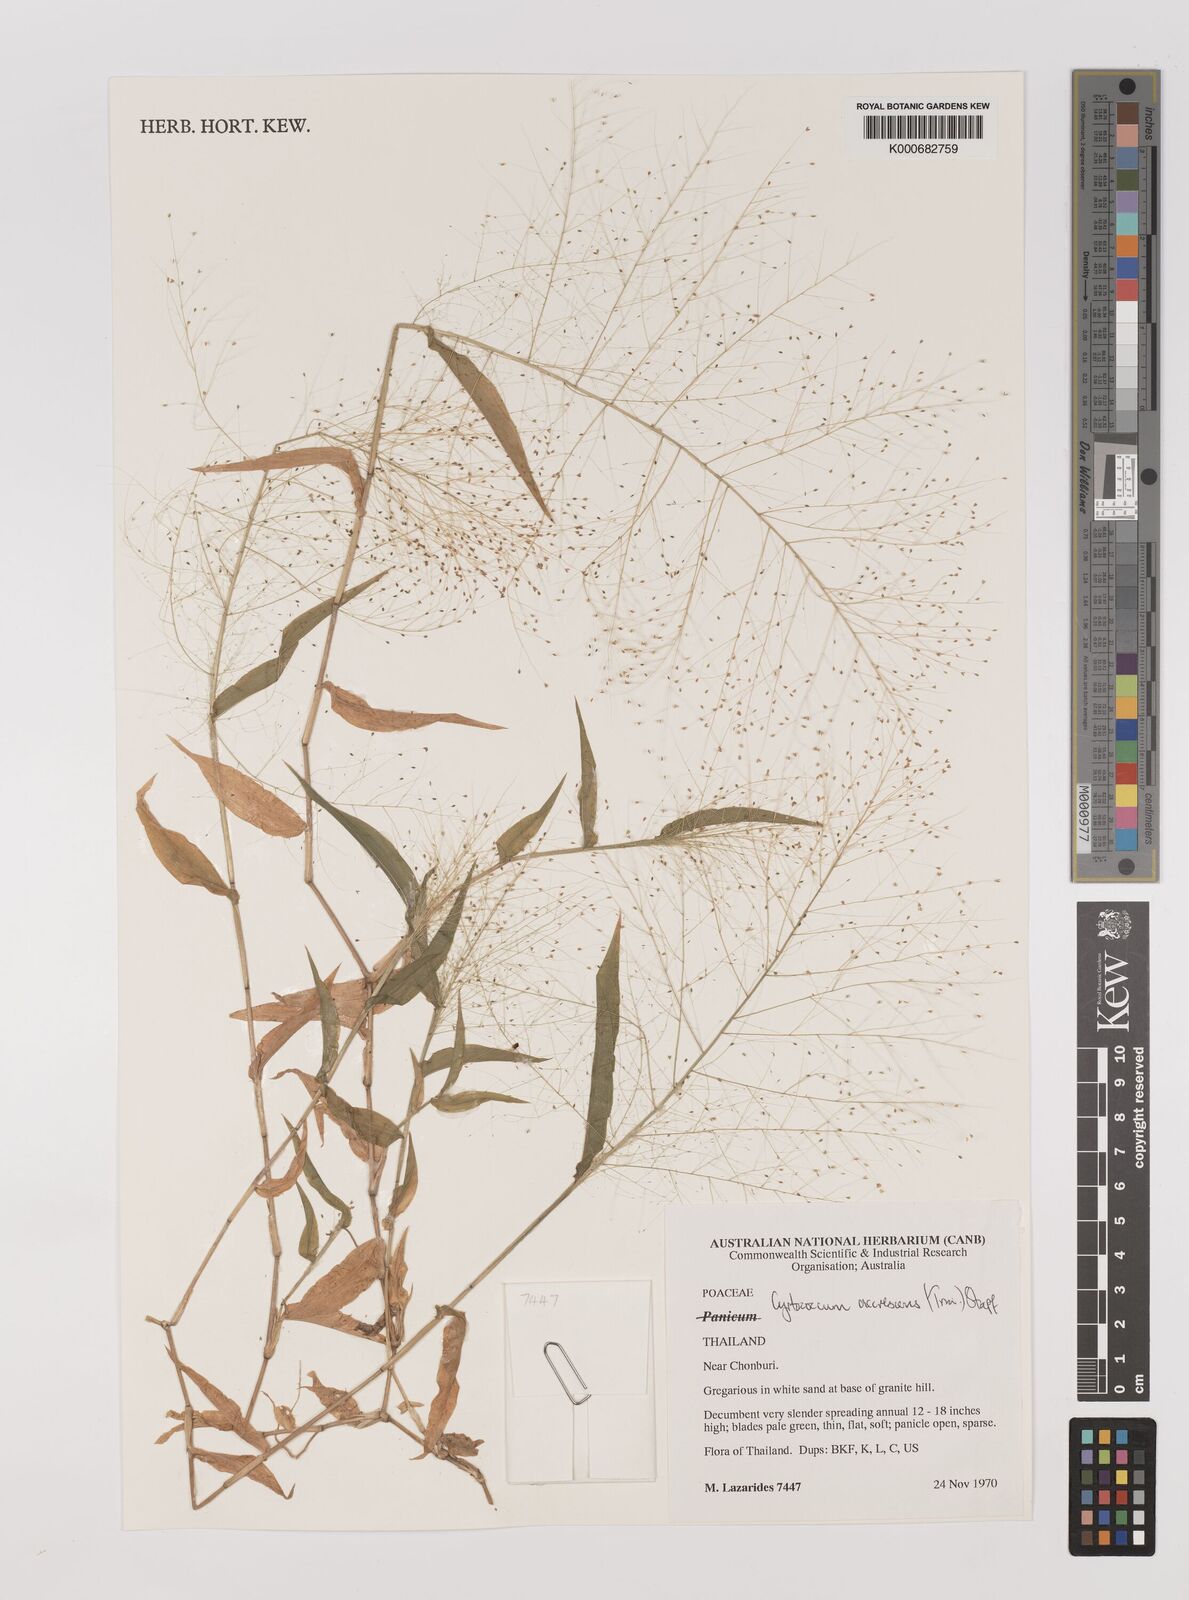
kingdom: Plantae
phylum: Tracheophyta
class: Liliopsida
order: Poales
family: Poaceae
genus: Panicum
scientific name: Panicum trichoides
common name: Tickle grass
